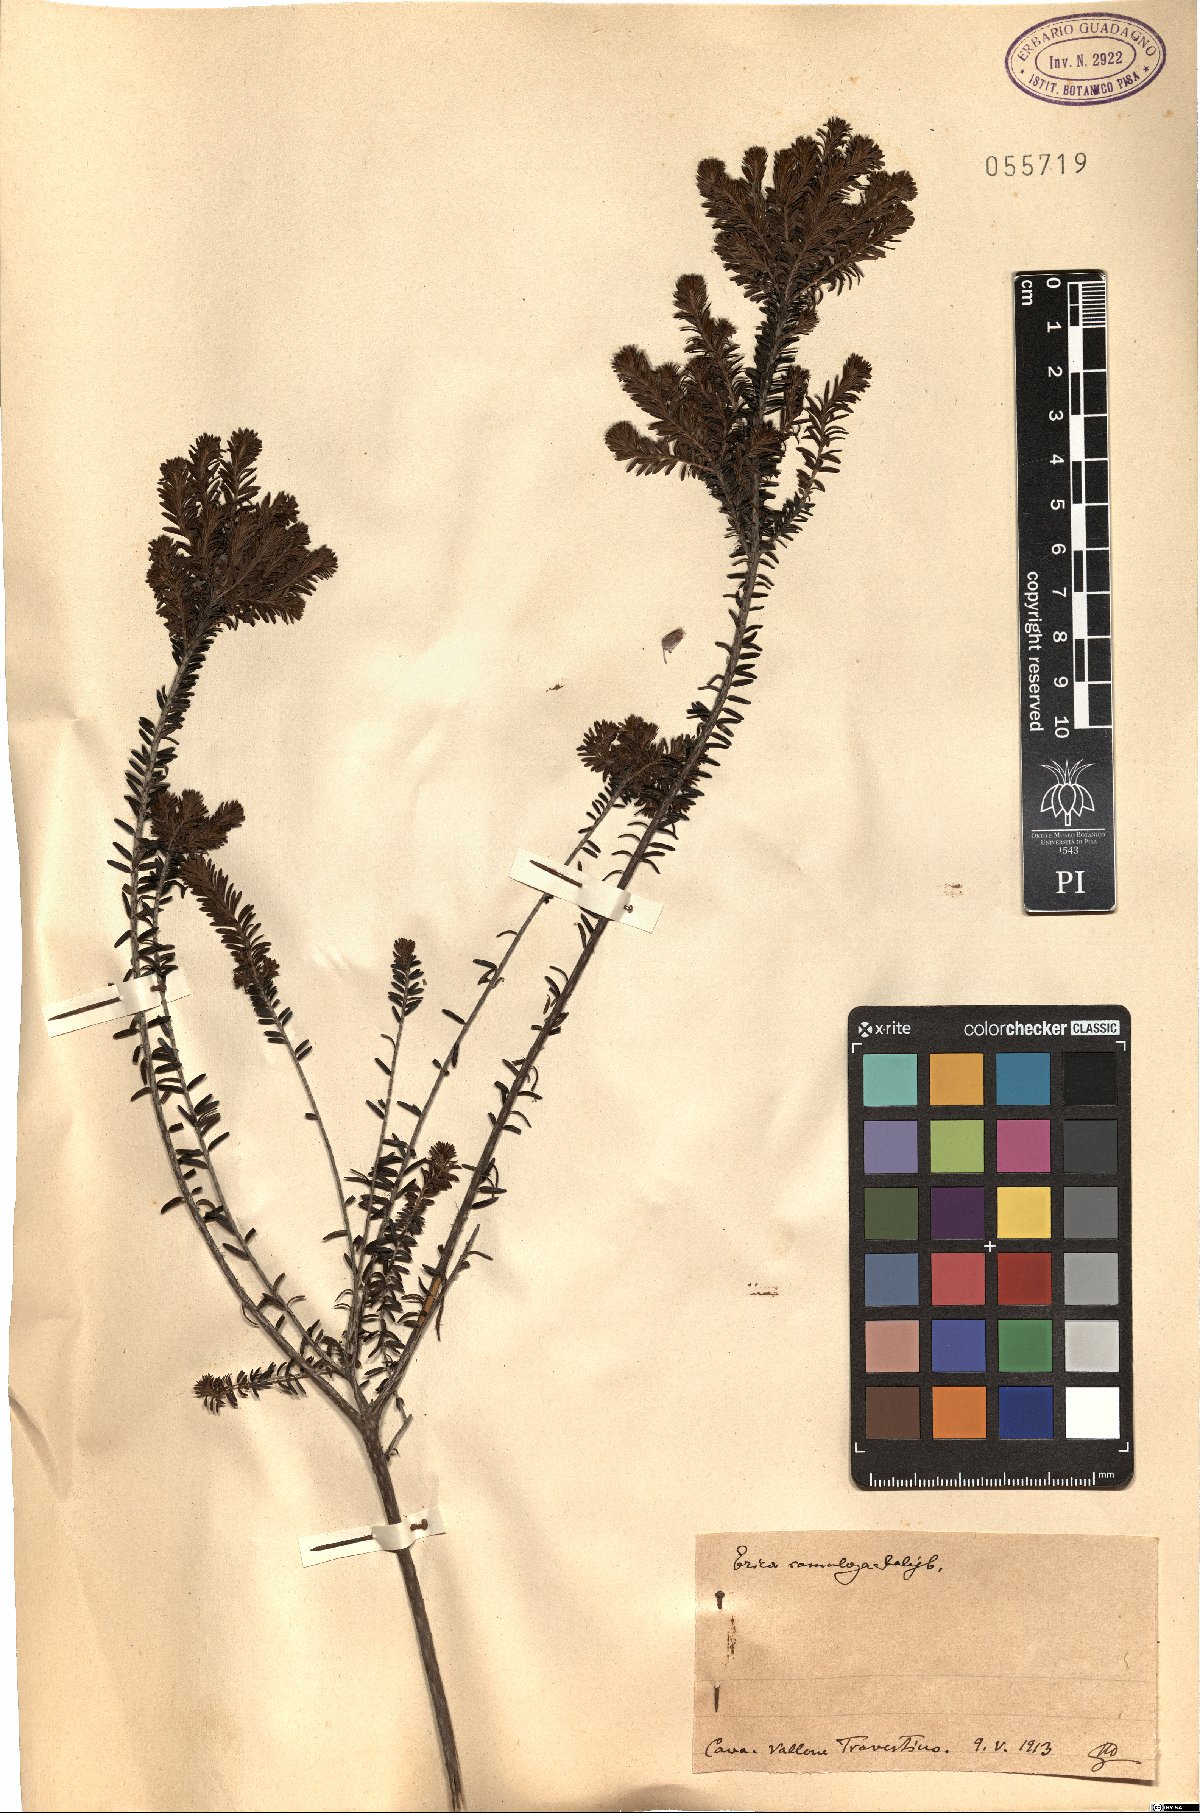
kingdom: Plantae
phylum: Tracheophyta
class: Magnoliopsida
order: Ericales
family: Ericaceae
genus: Erica
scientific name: Erica imbricata
